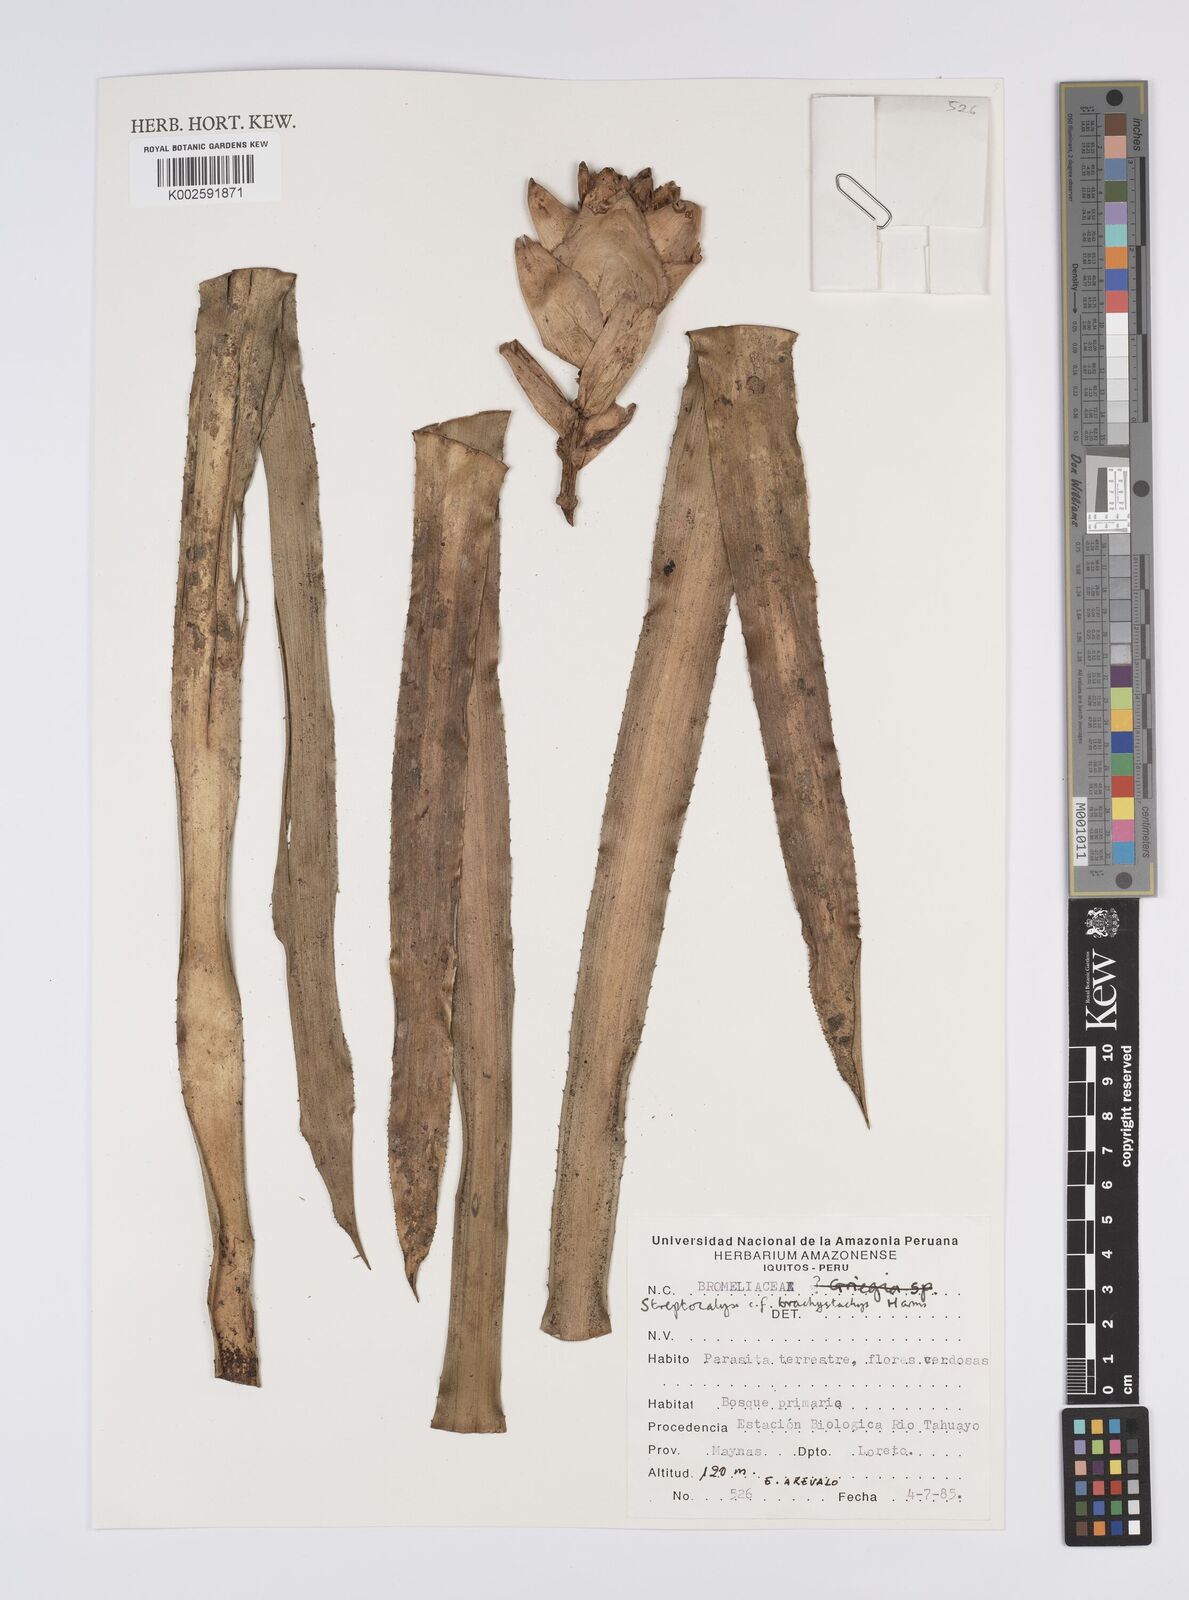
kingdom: Plantae
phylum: Tracheophyta
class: Liliopsida
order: Poales
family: Bromeliaceae
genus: Aechmea
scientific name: Aechmea brachystachys
